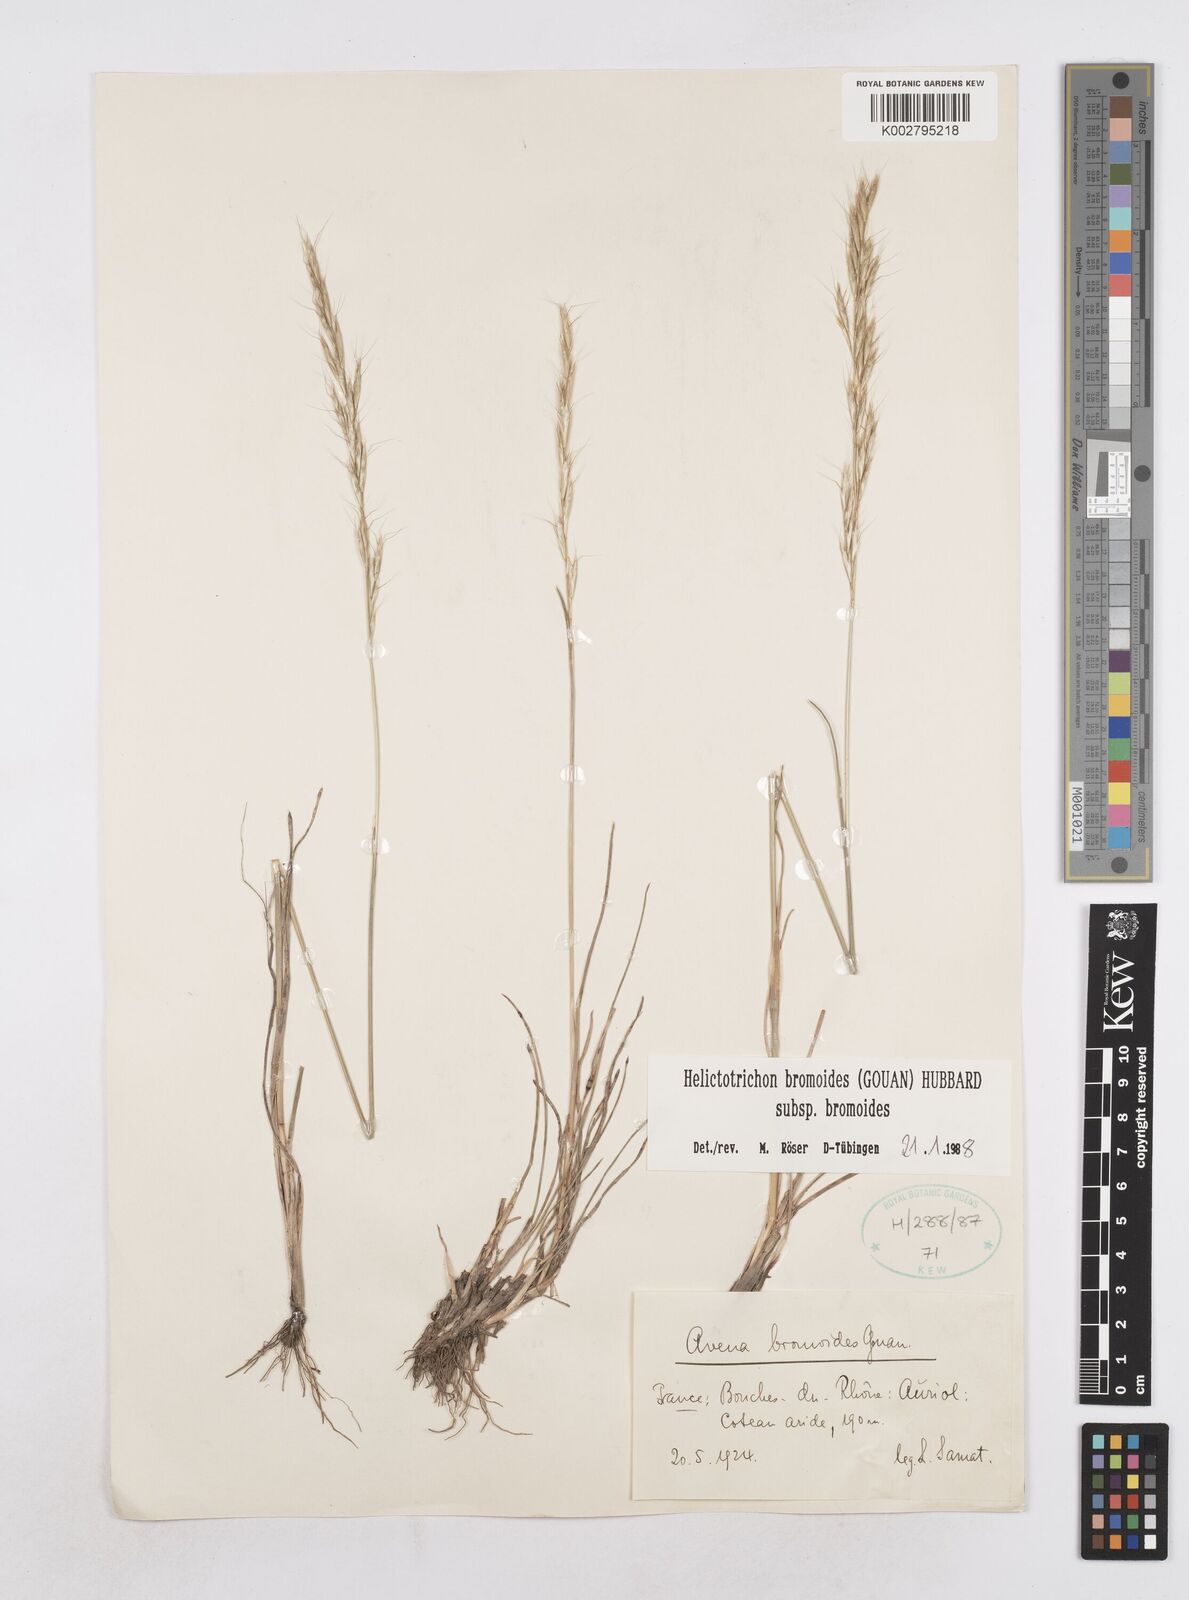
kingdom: Plantae
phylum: Tracheophyta
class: Liliopsida
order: Poales
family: Poaceae
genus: Helictochloa
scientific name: Helictochloa bromoides
